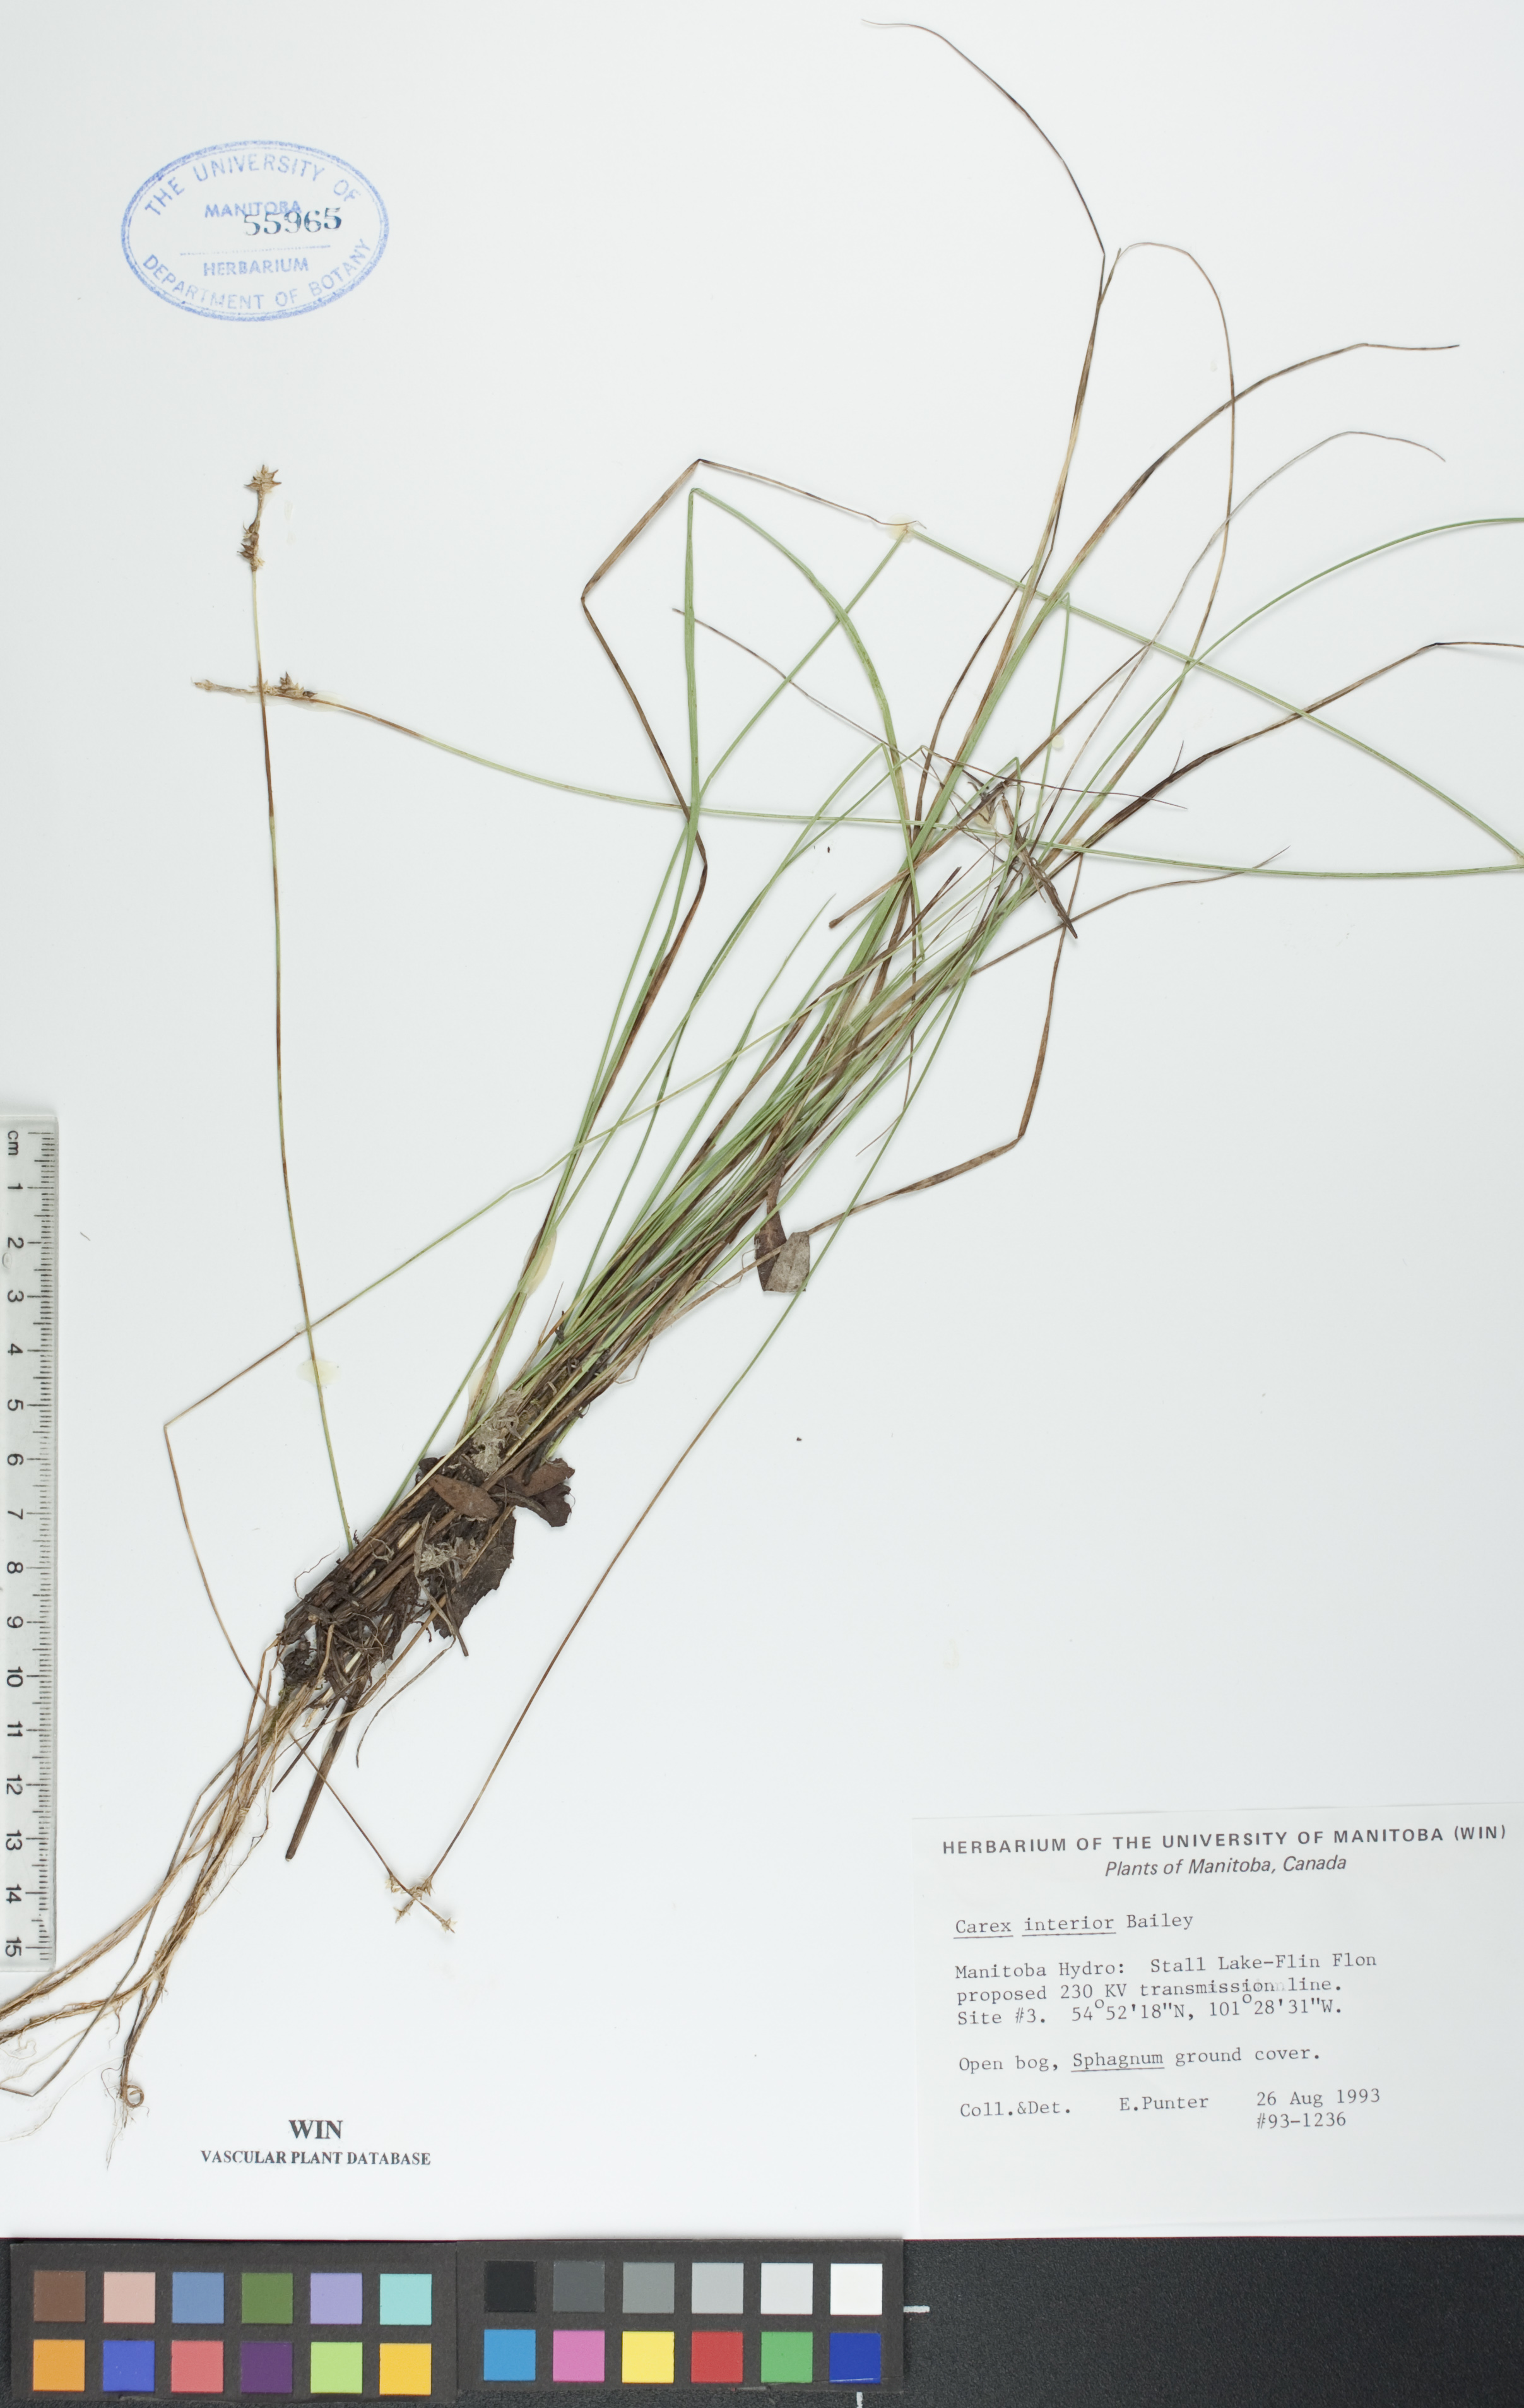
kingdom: Plantae
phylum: Tracheophyta
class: Liliopsida
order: Poales
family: Cyperaceae
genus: Carex
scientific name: Carex interior
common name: Inland sedge
